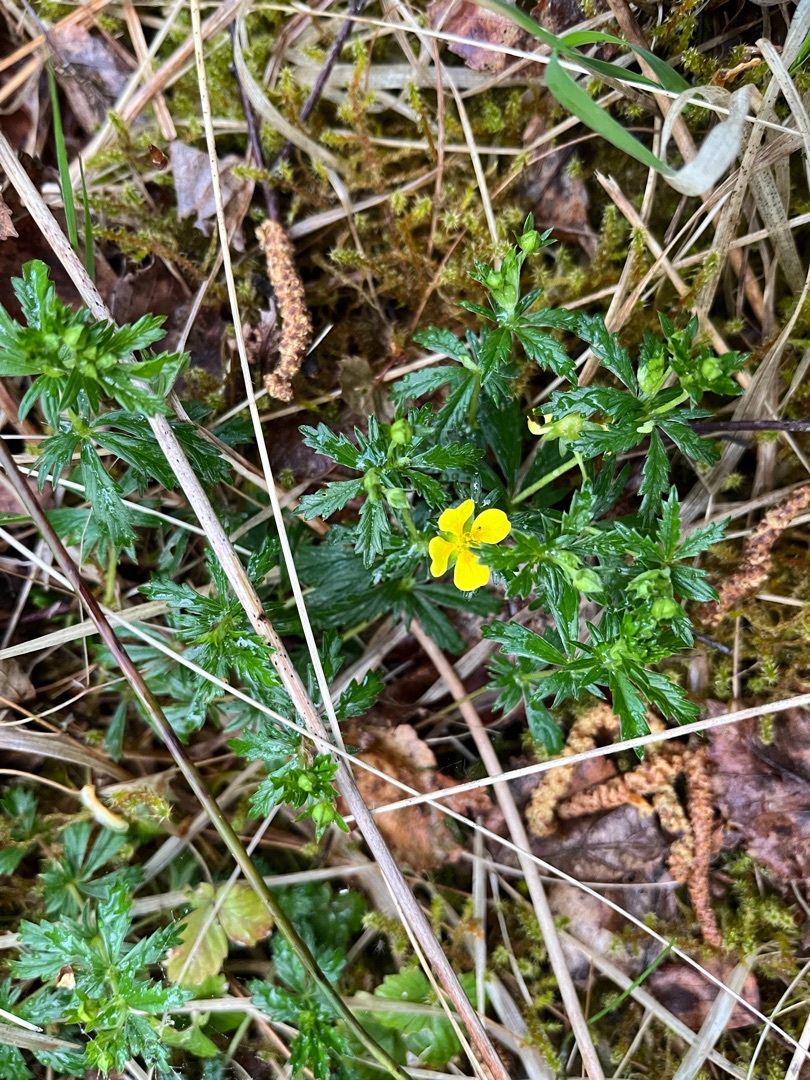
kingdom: Plantae
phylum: Tracheophyta
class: Magnoliopsida
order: Rosales
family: Rosaceae
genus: Potentilla
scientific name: Potentilla erecta
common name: Tormentil
